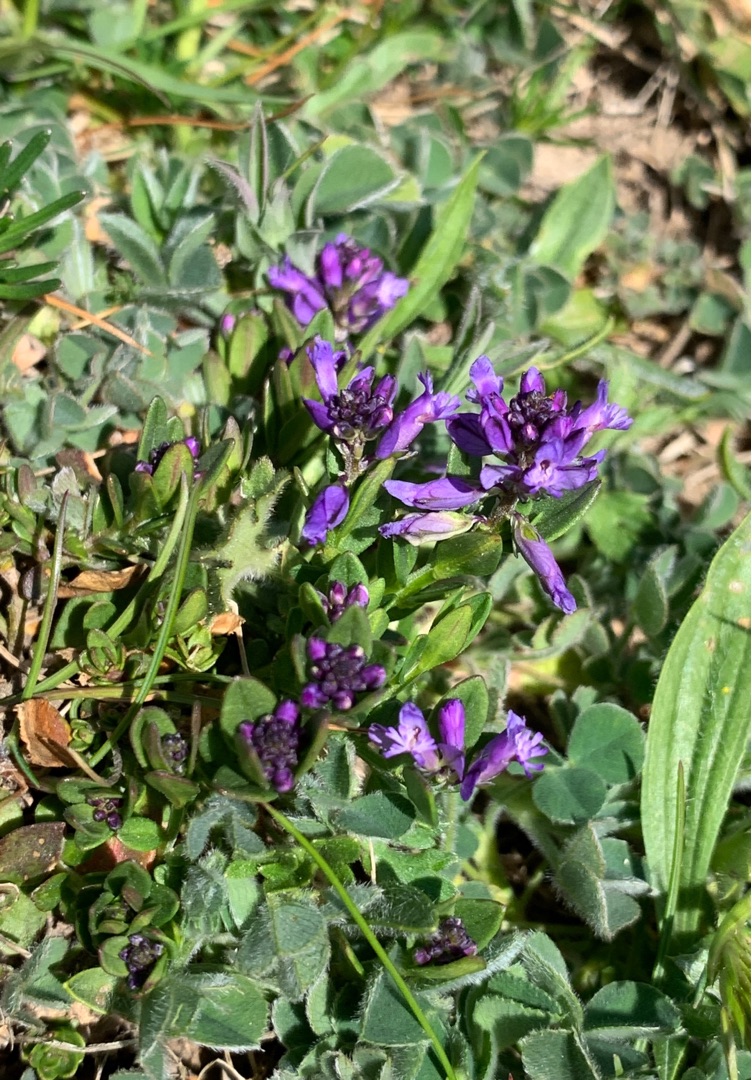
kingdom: Plantae
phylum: Tracheophyta
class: Magnoliopsida
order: Fabales
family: Polygalaceae
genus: Polygala
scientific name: Polygala vulgaris
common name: Almindelig mælkeurt
